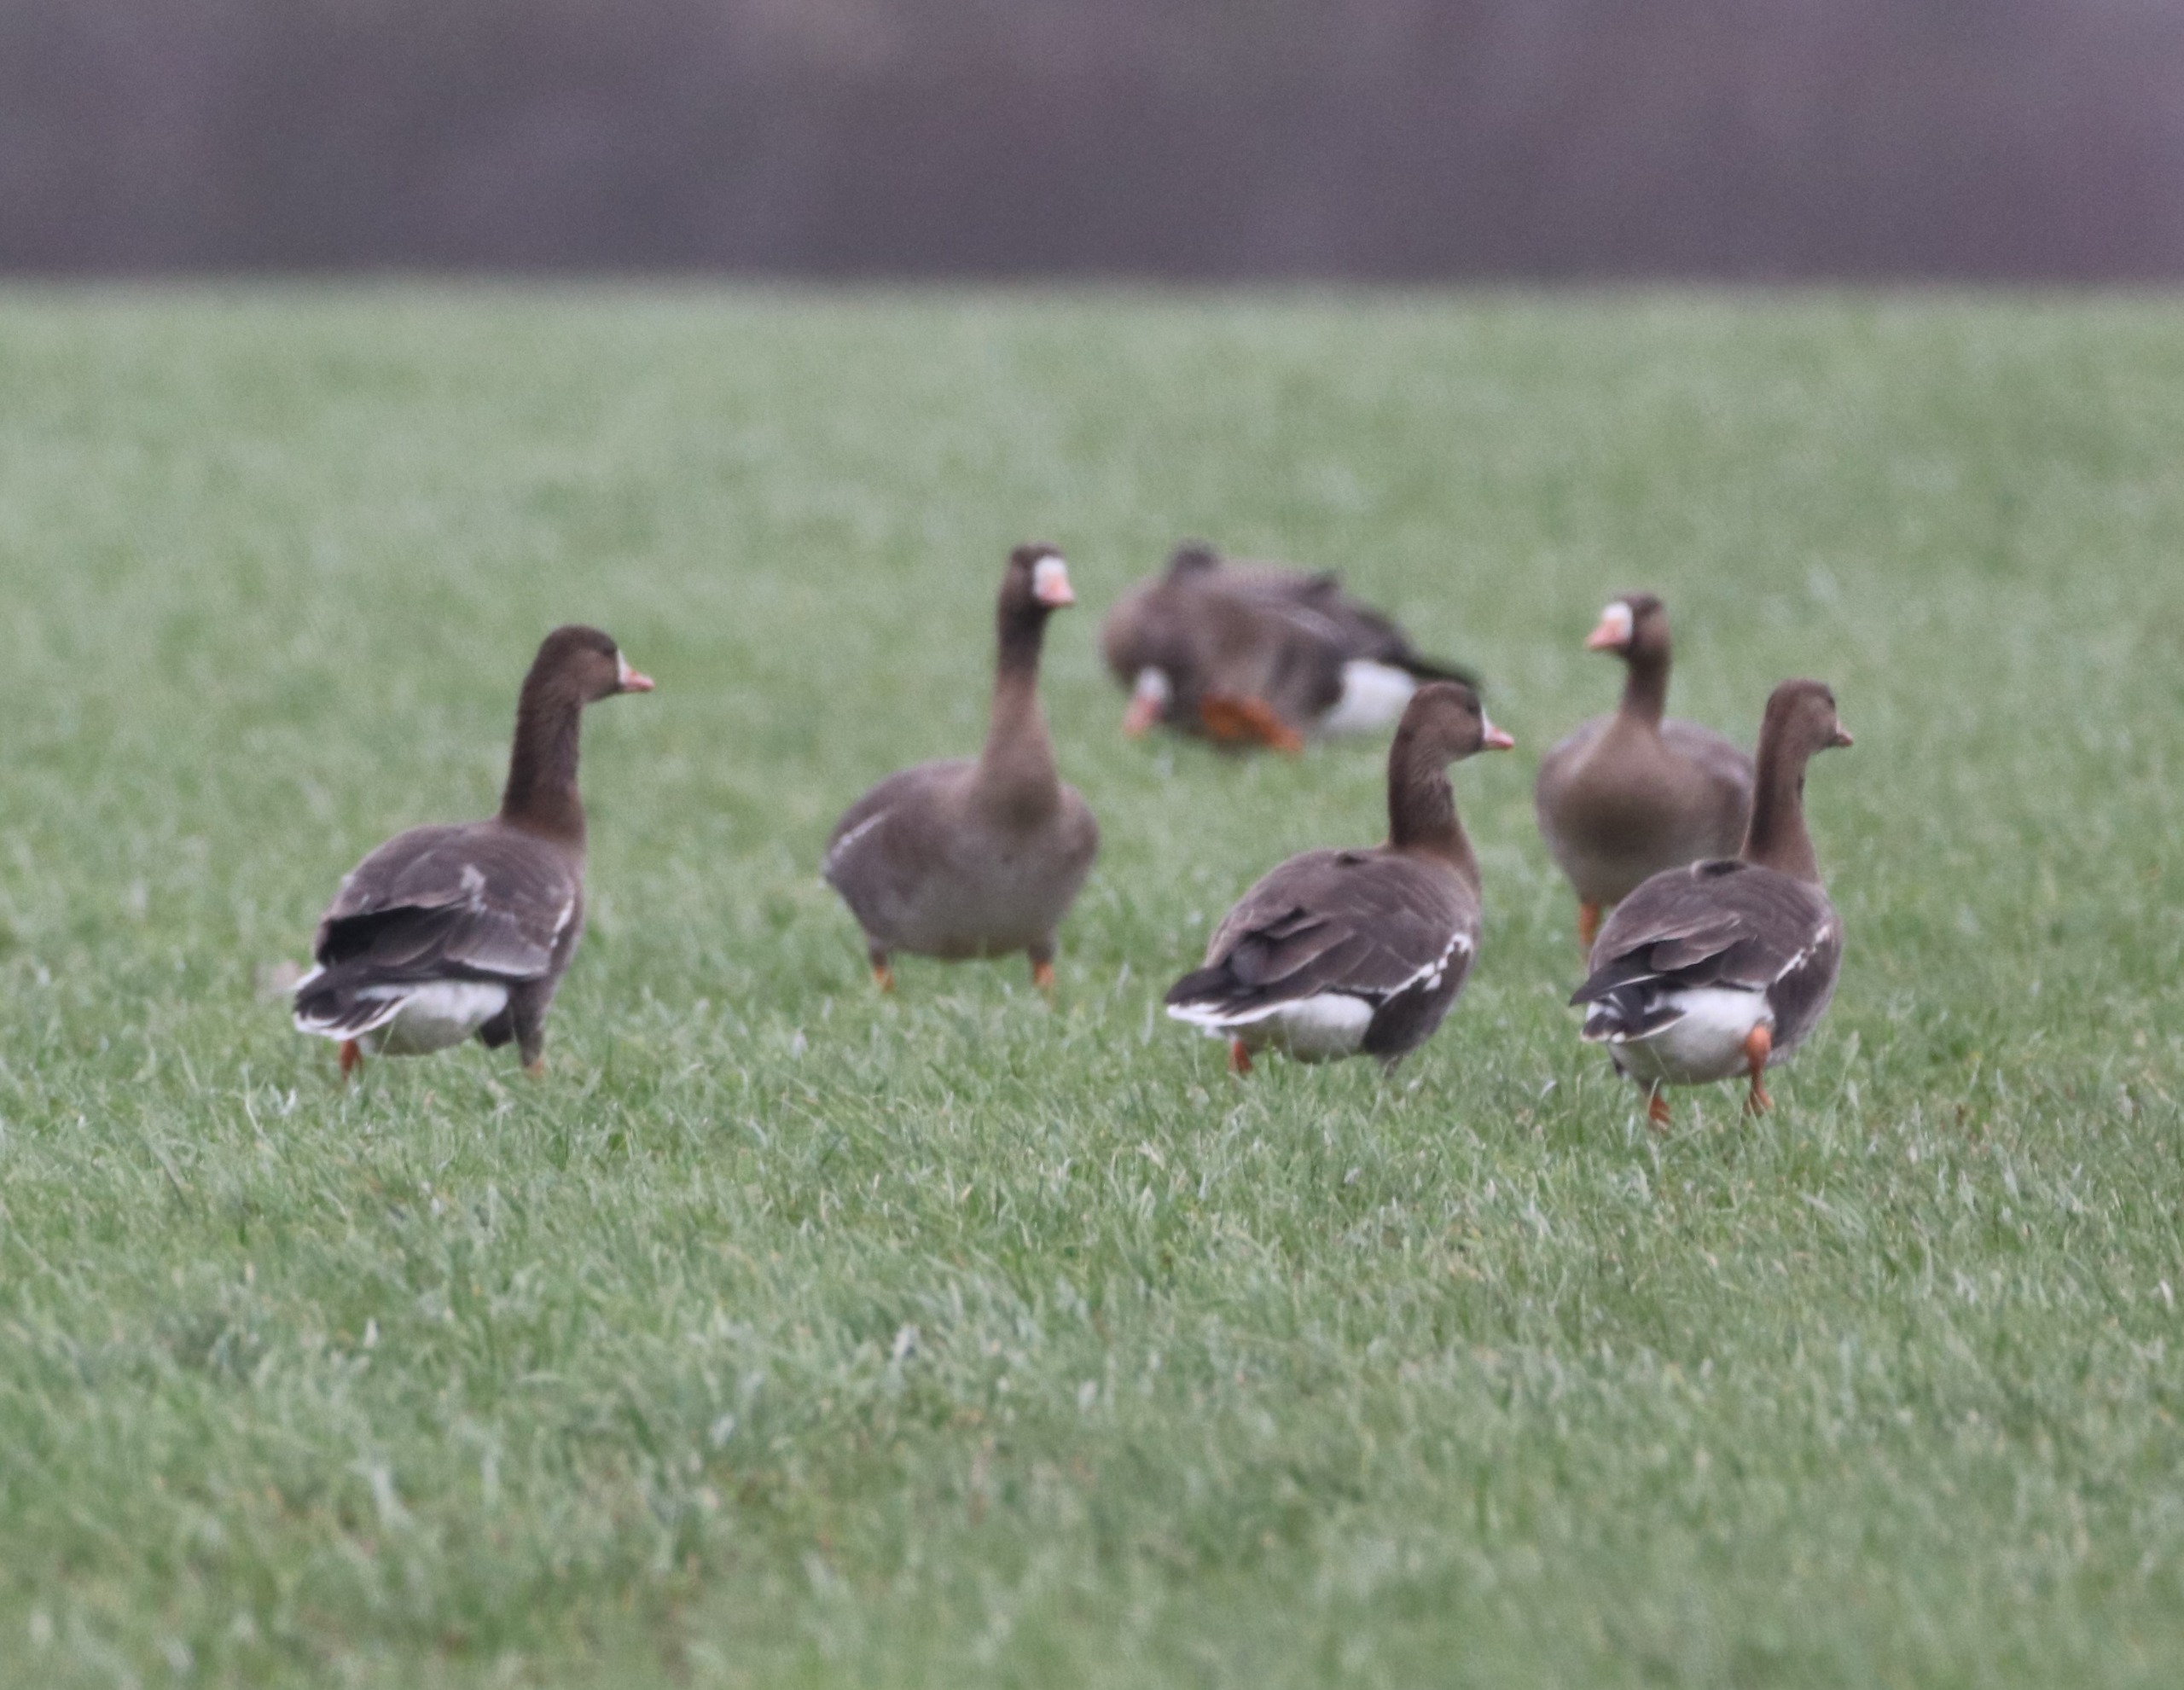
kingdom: Animalia
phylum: Chordata
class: Aves
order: Anseriformes
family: Anatidae
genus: Anser
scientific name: Anser albifrons
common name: Blisgås
